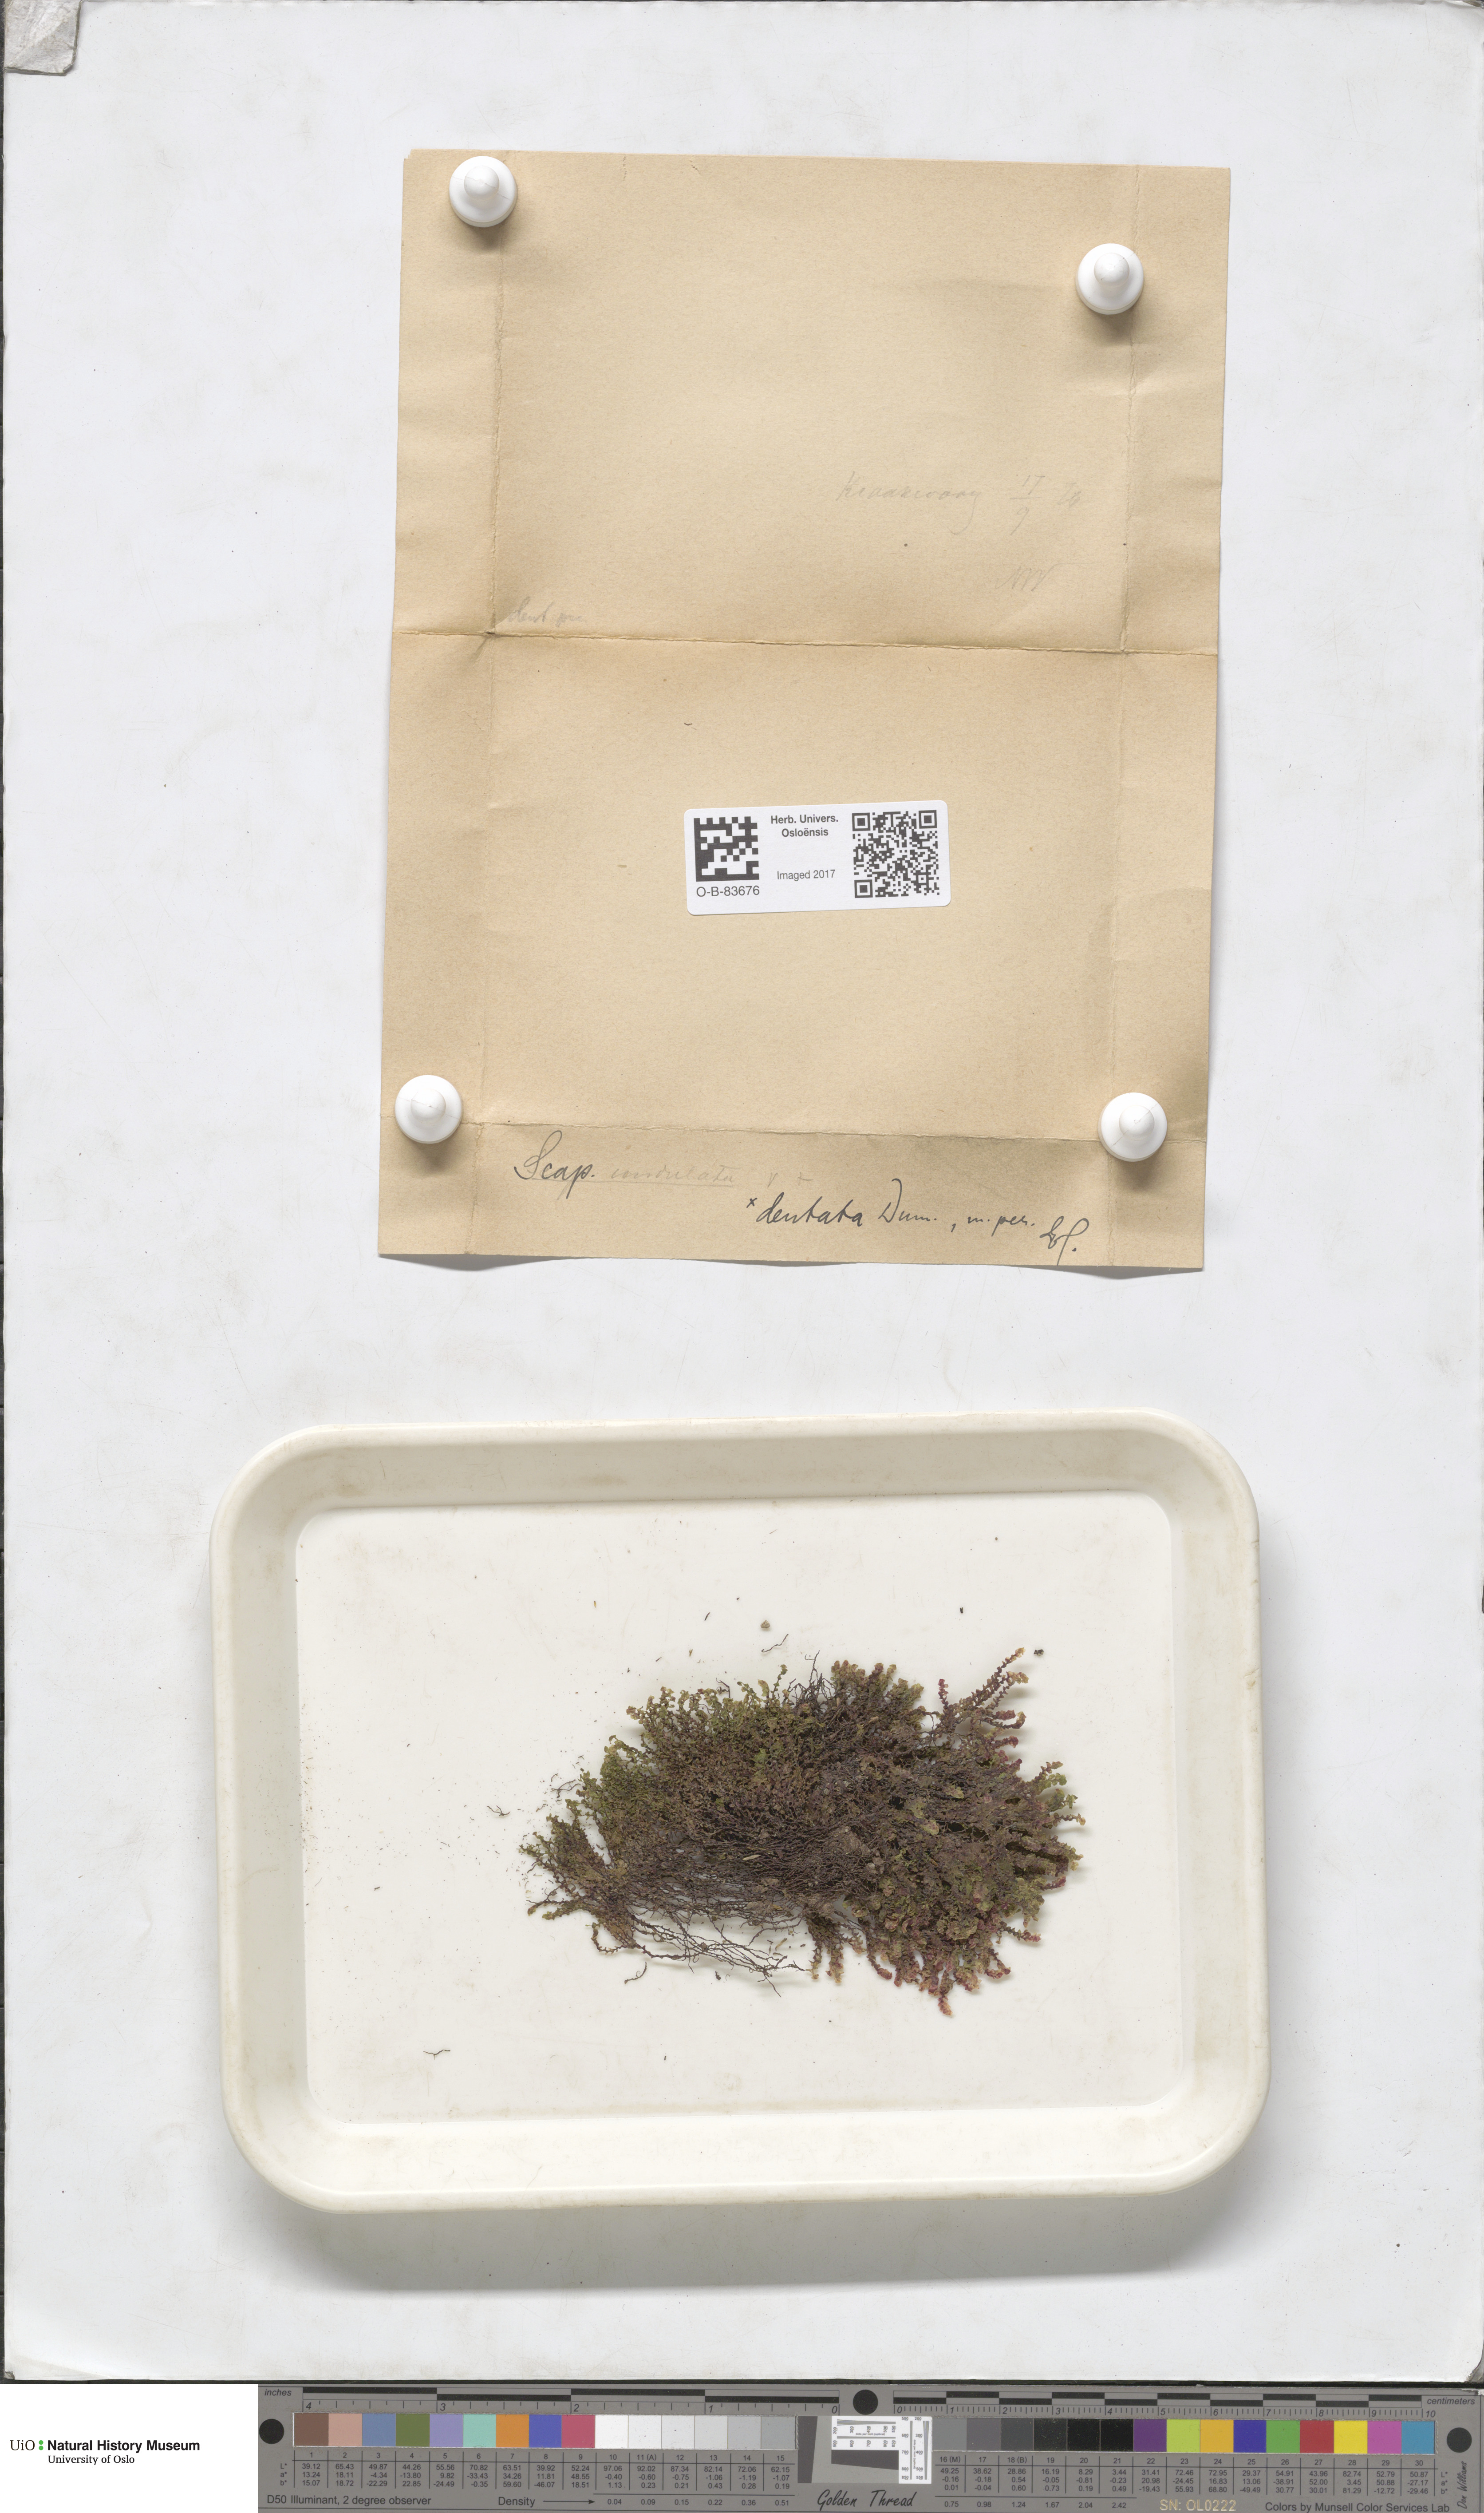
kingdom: Plantae
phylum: Marchantiophyta
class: Jungermanniopsida
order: Jungermanniales
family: Scapaniaceae
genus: Scapania
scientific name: Scapania undulata
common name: Water earwort
